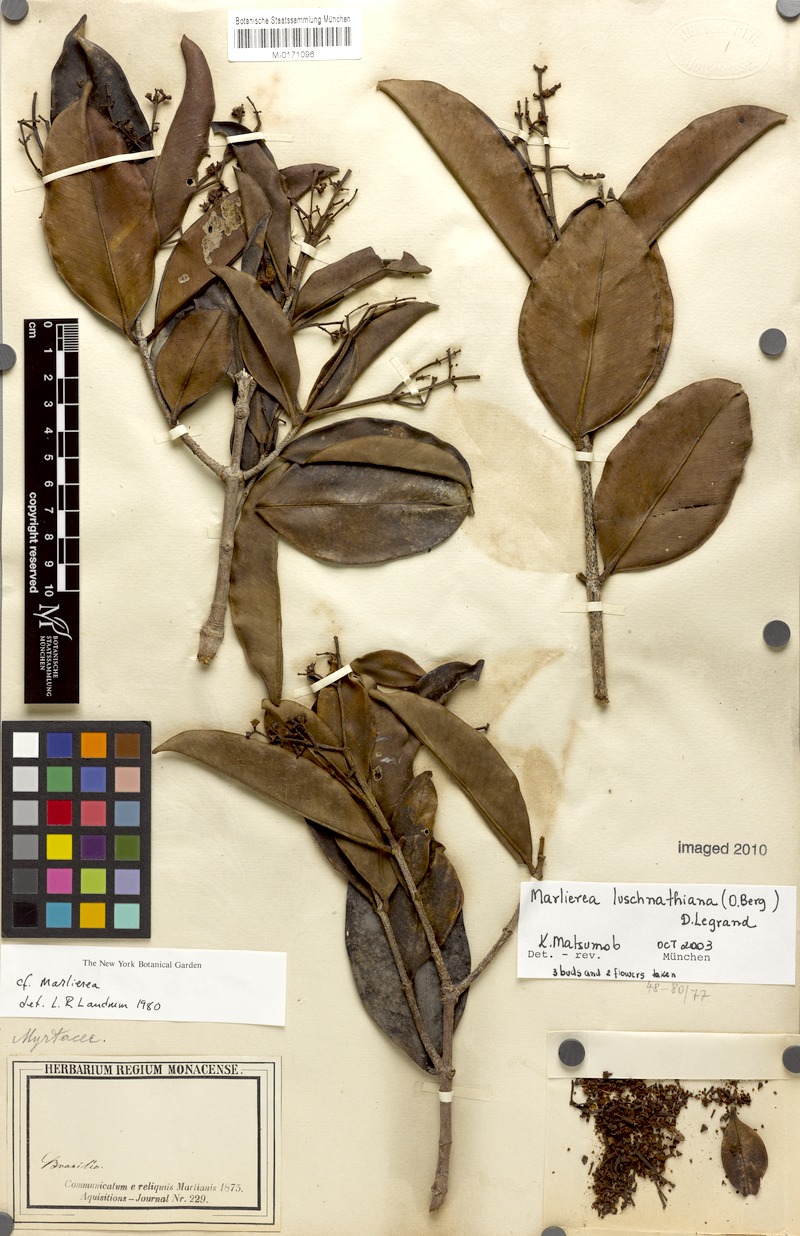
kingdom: Plantae
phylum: Tracheophyta
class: Magnoliopsida
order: Myrtales
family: Myrtaceae
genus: Myrcia
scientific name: Myrcia maculata
